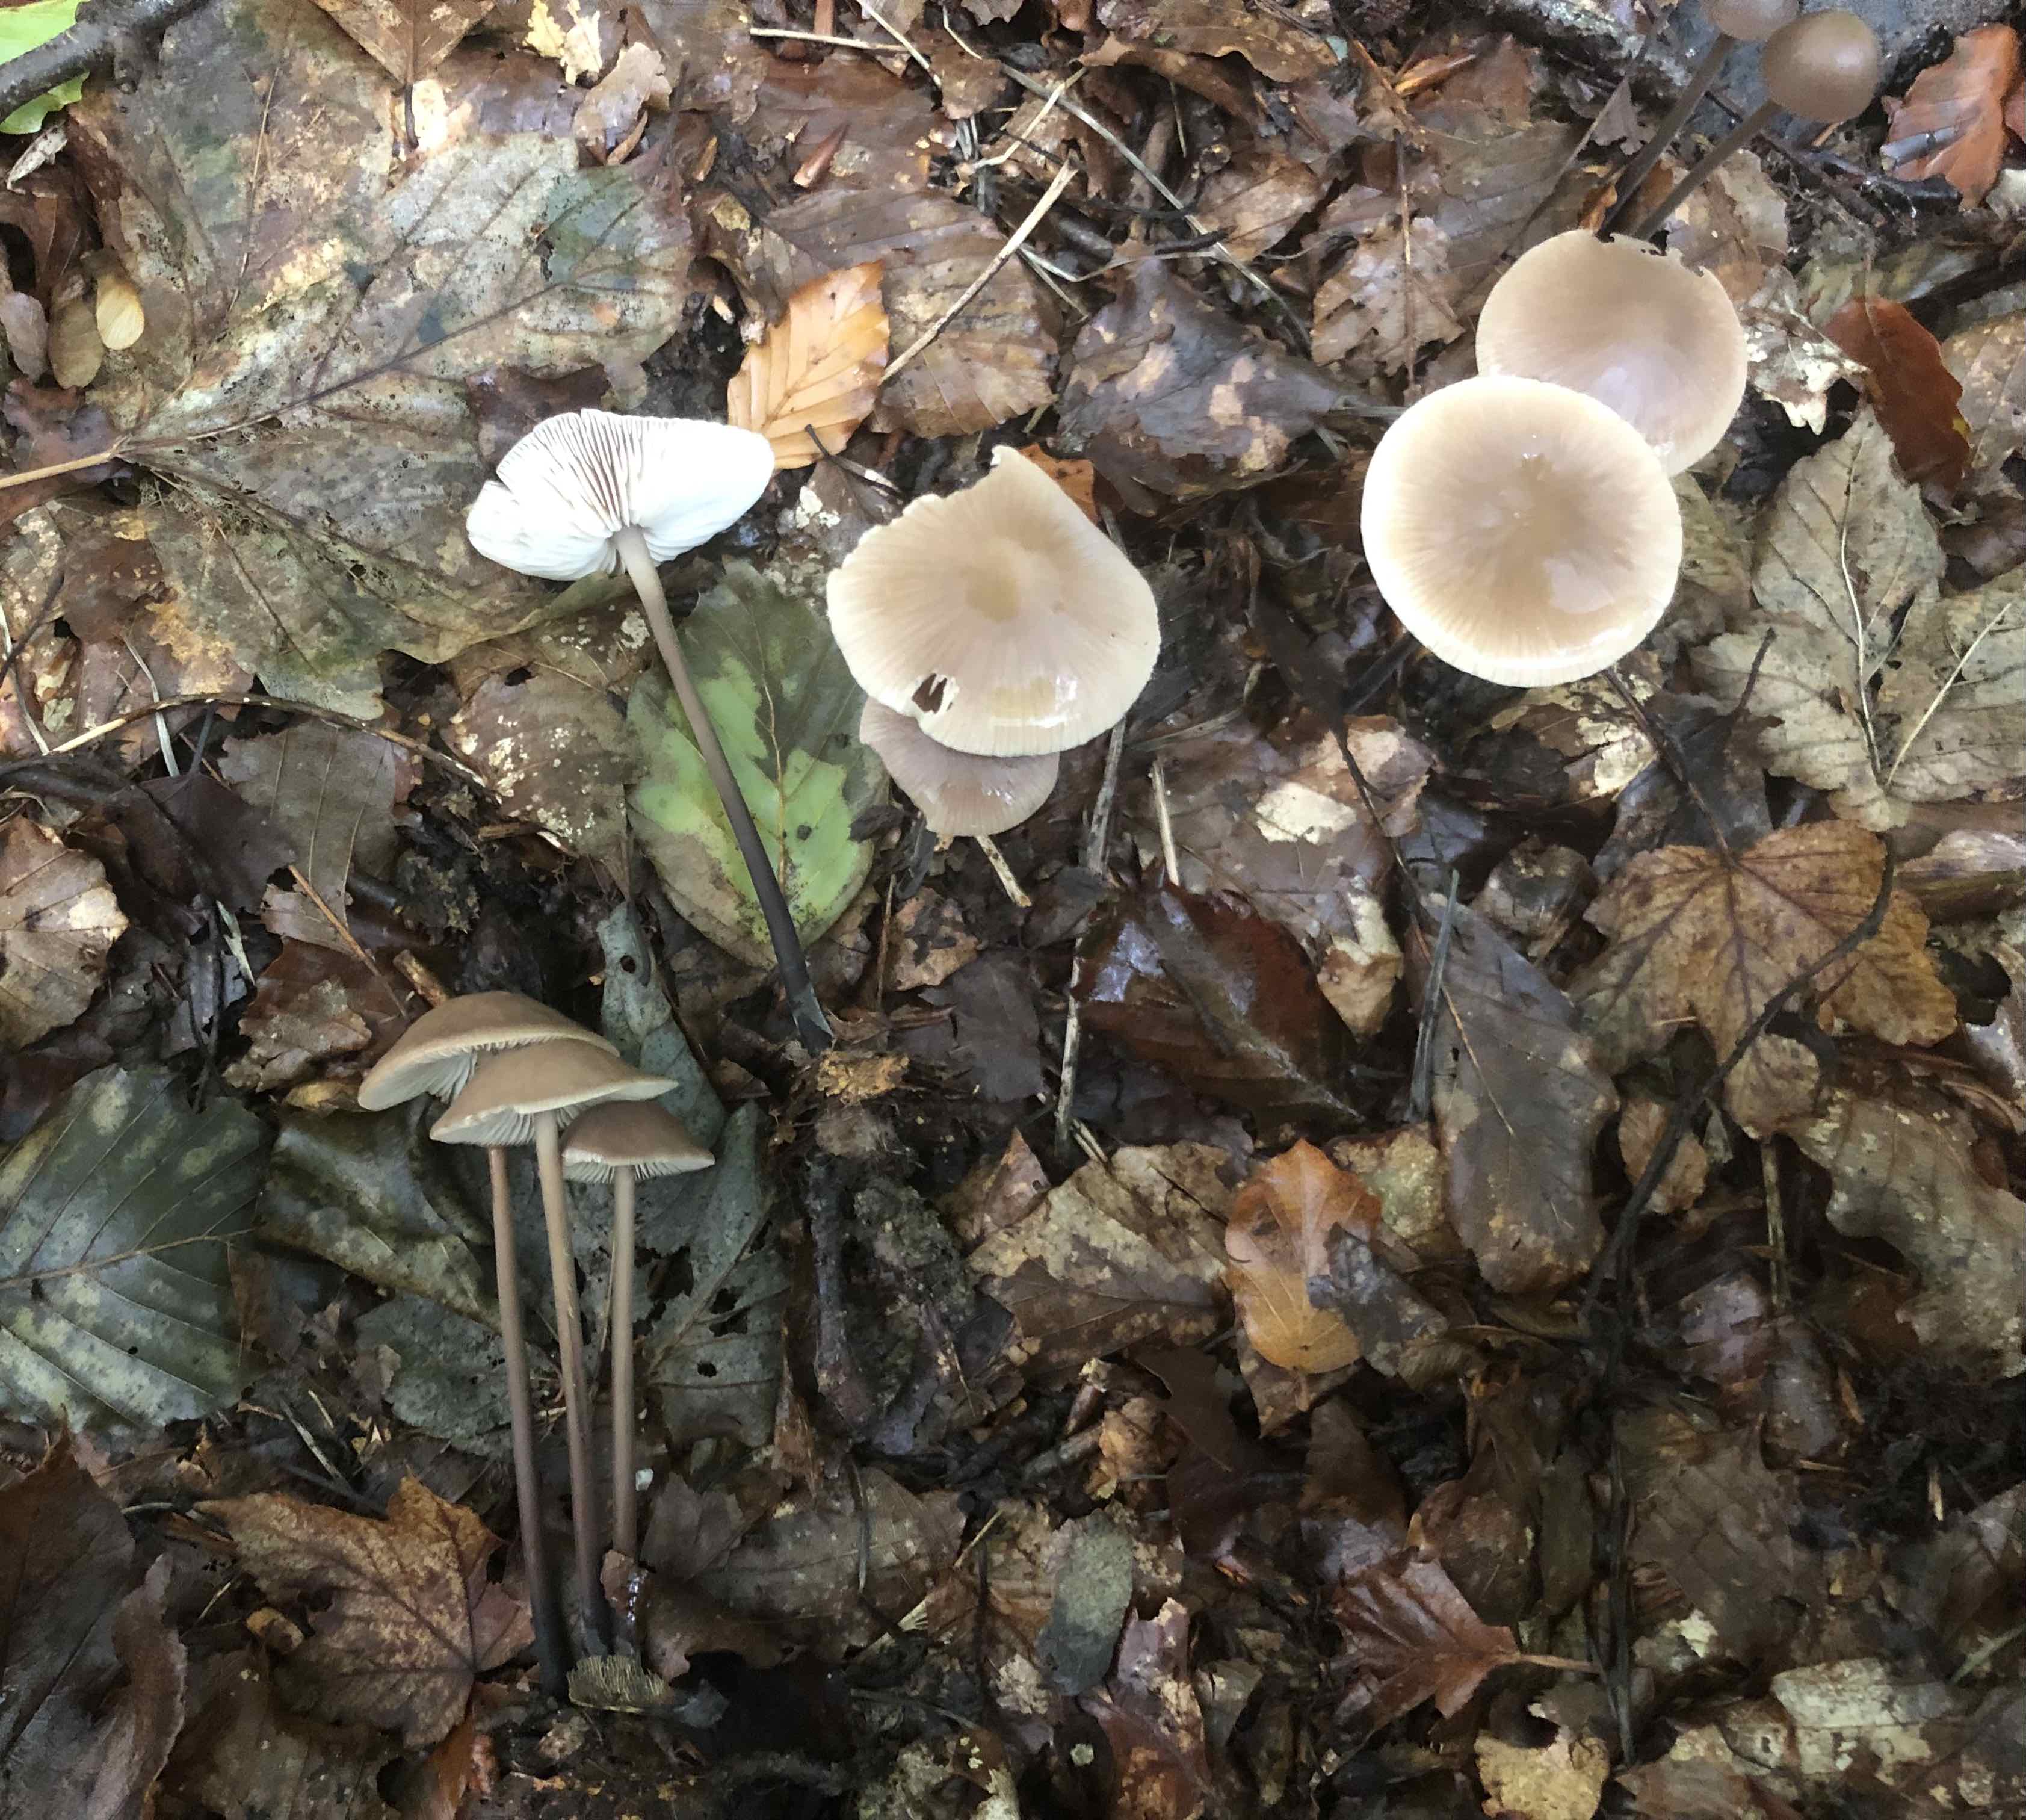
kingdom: Fungi
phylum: Basidiomycota
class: Agaricomycetes
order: Agaricales
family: Omphalotaceae
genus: Mycetinis
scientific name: Mycetinis alliaceus
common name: stor løghat
